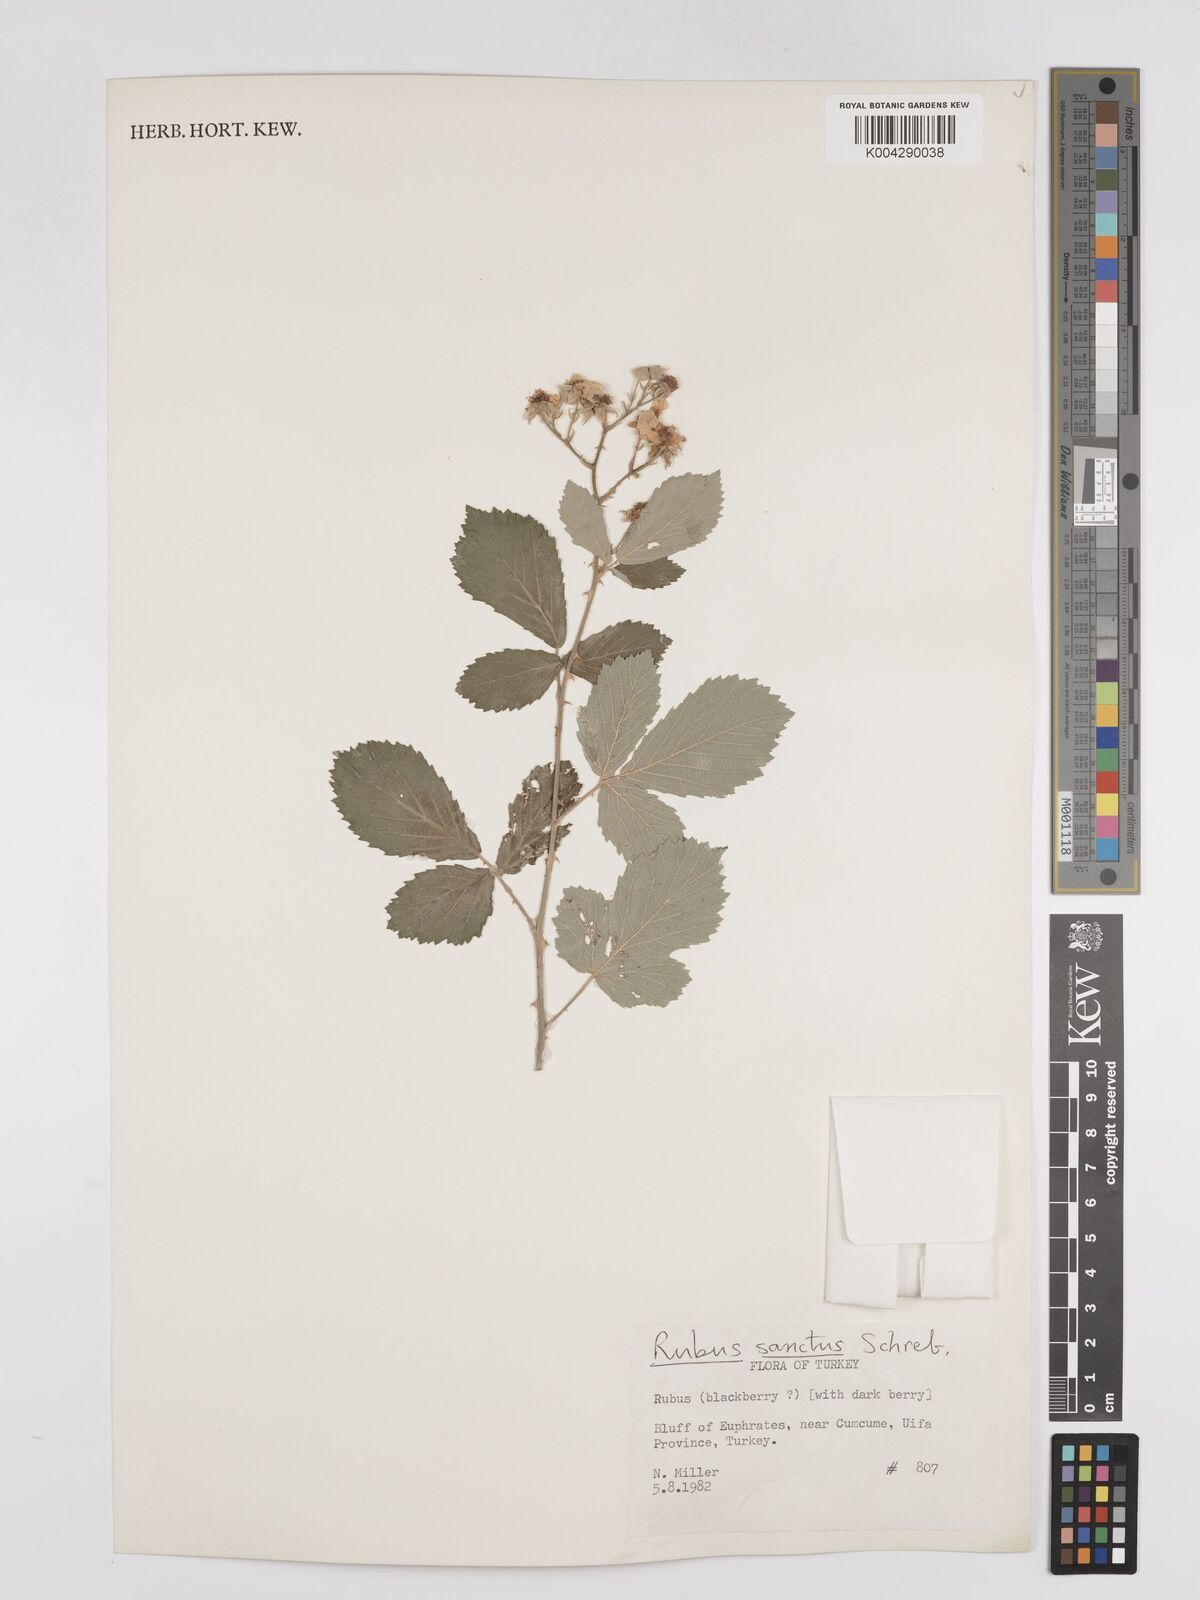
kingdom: Plantae
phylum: Tracheophyta
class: Magnoliopsida
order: Rosales
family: Rosaceae
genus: Rubus
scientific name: Rubus sanctus
